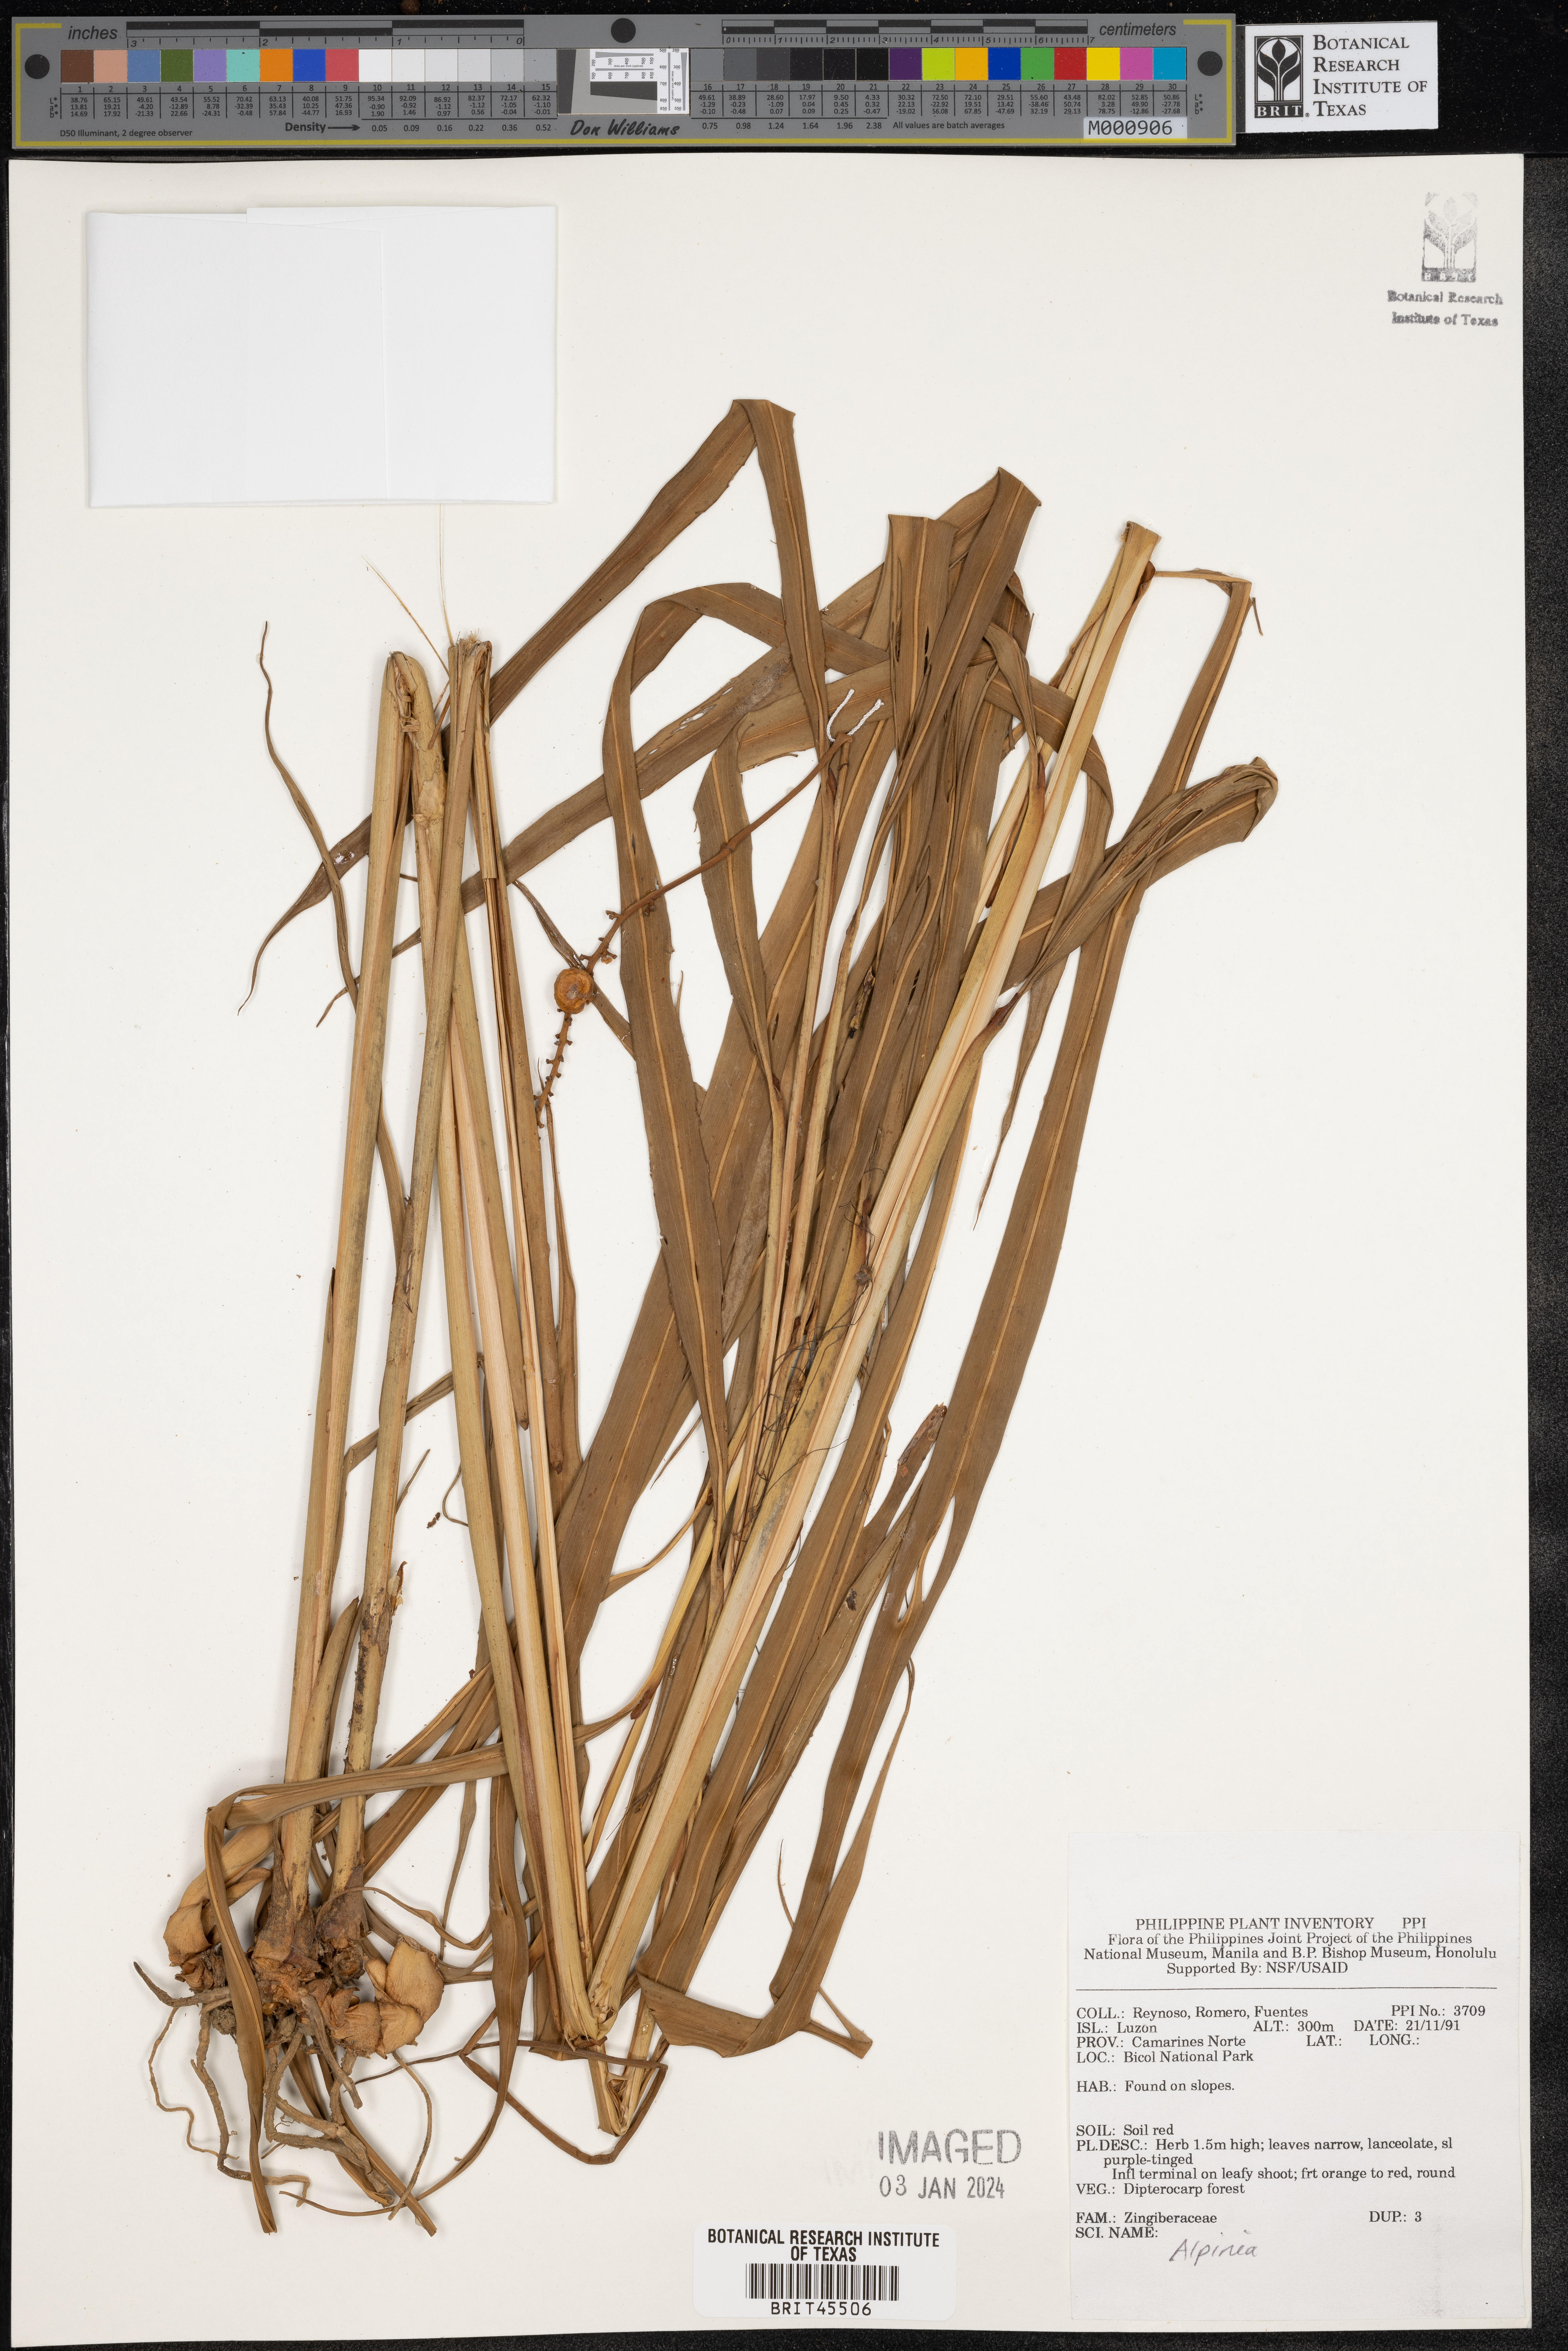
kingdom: Plantae
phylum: Tracheophyta
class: Liliopsida
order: Zingiberales
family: Zingiberaceae
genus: Alpinia
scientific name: Alpinia
